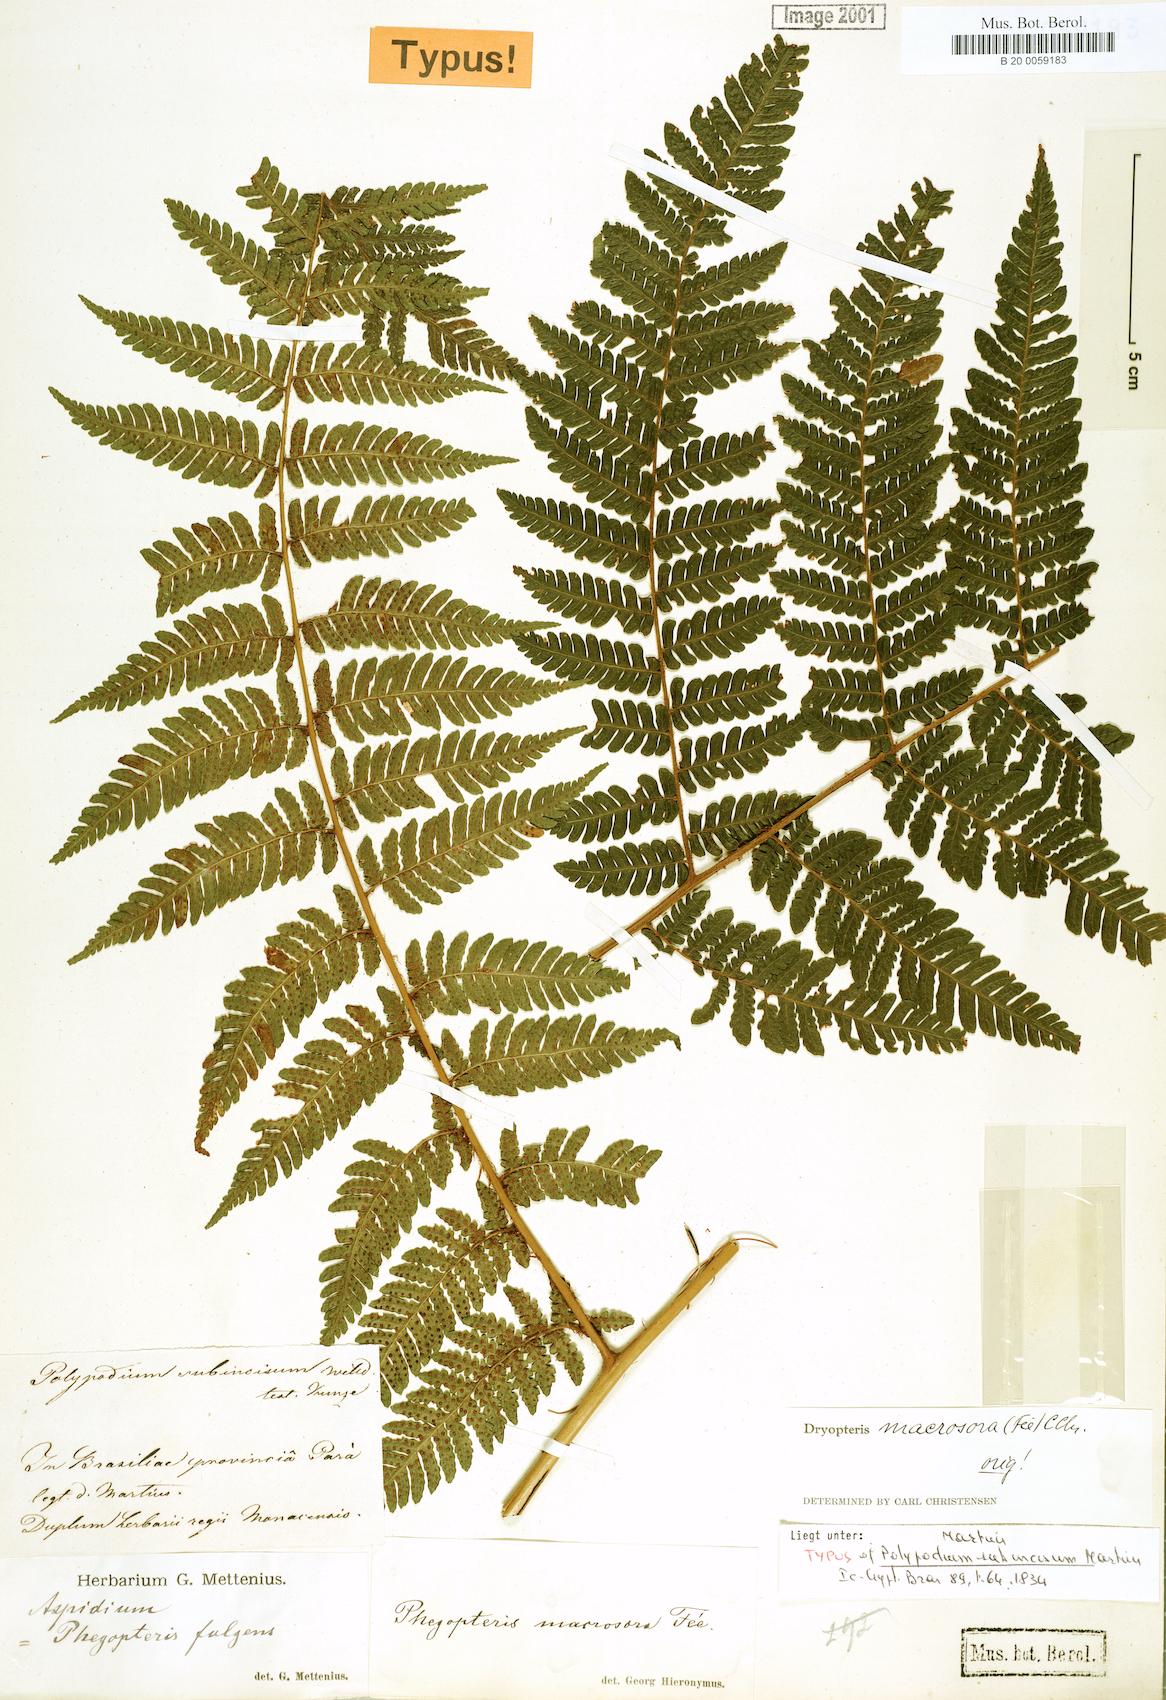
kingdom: Plantae
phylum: Tracheophyta
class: Polypodiopsida
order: Polypodiales
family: Dryopteridaceae
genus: Megalastrum
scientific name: Megalastrum inaequale
